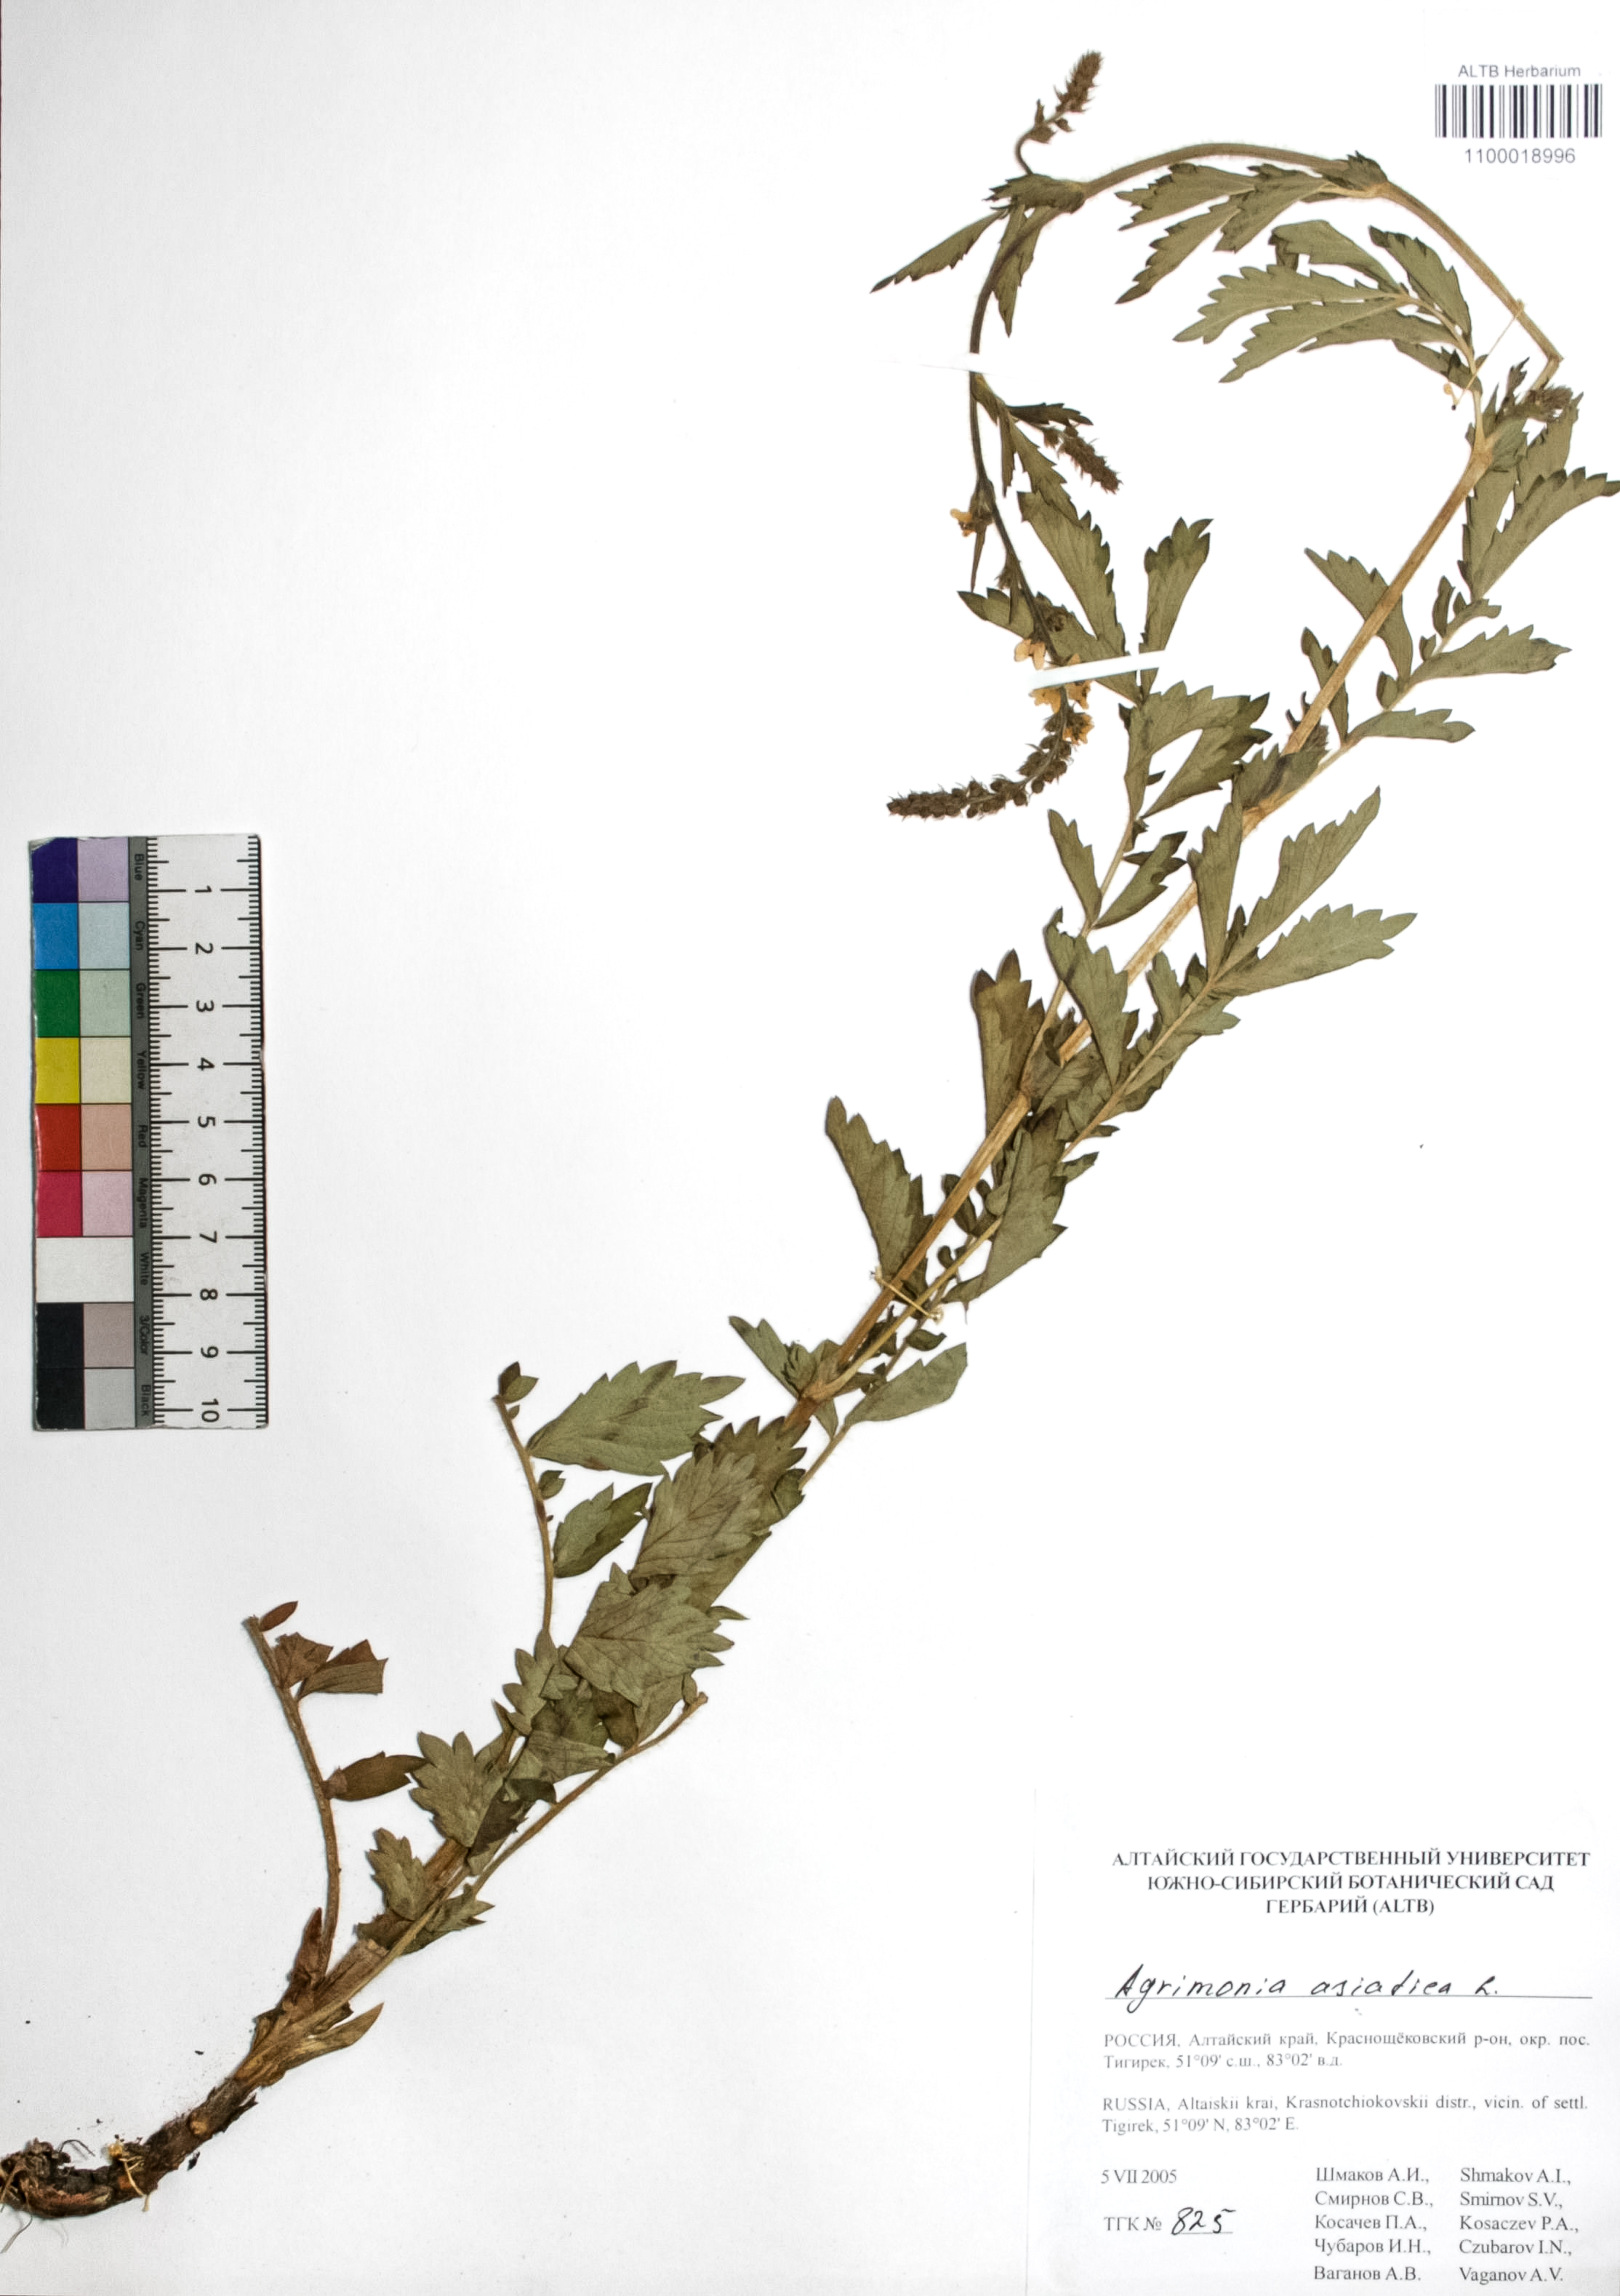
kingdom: Plantae
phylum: Tracheophyta
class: Magnoliopsida
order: Rosales
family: Rosaceae
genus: Agrimonia
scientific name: Agrimonia eupatoria
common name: Agrimony
